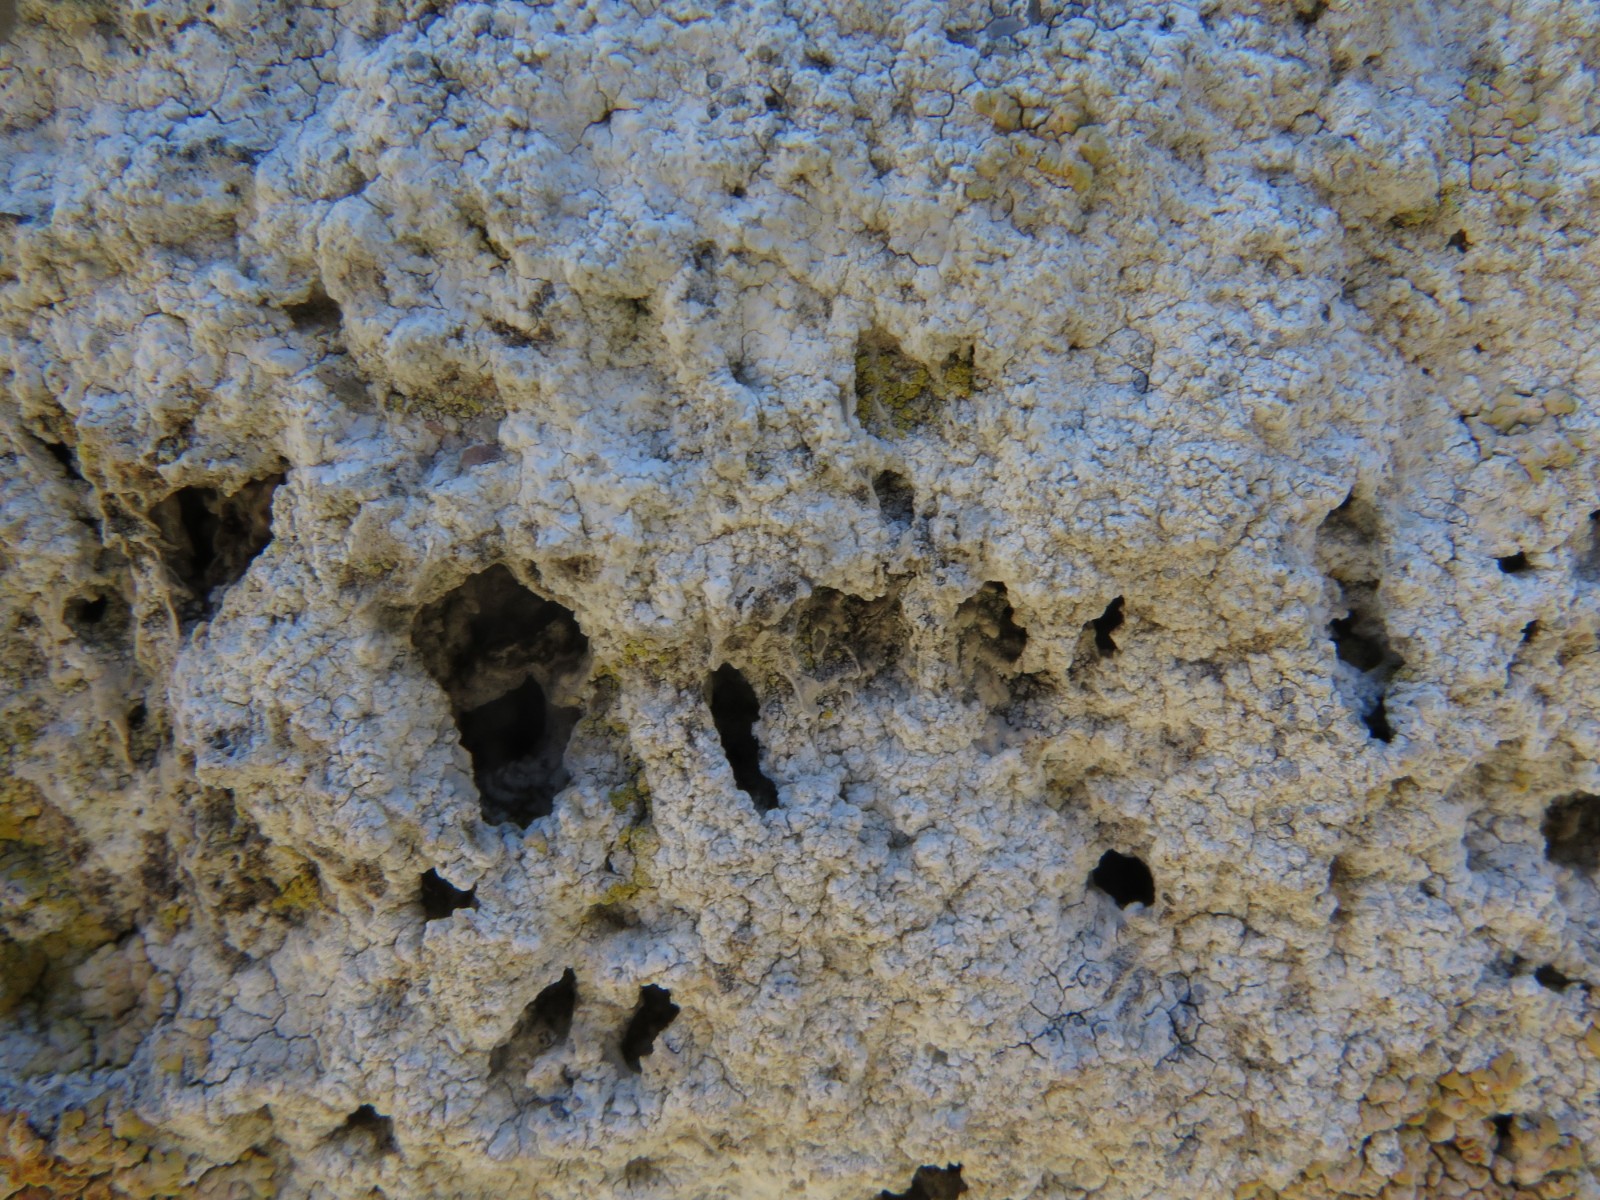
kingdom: Fungi
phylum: Ascomycota
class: Lecanoromycetes
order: Lecanorales
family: Lecanoraceae
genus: Polyozosia
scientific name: Polyozosia albescens
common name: cement-kantskivelav
